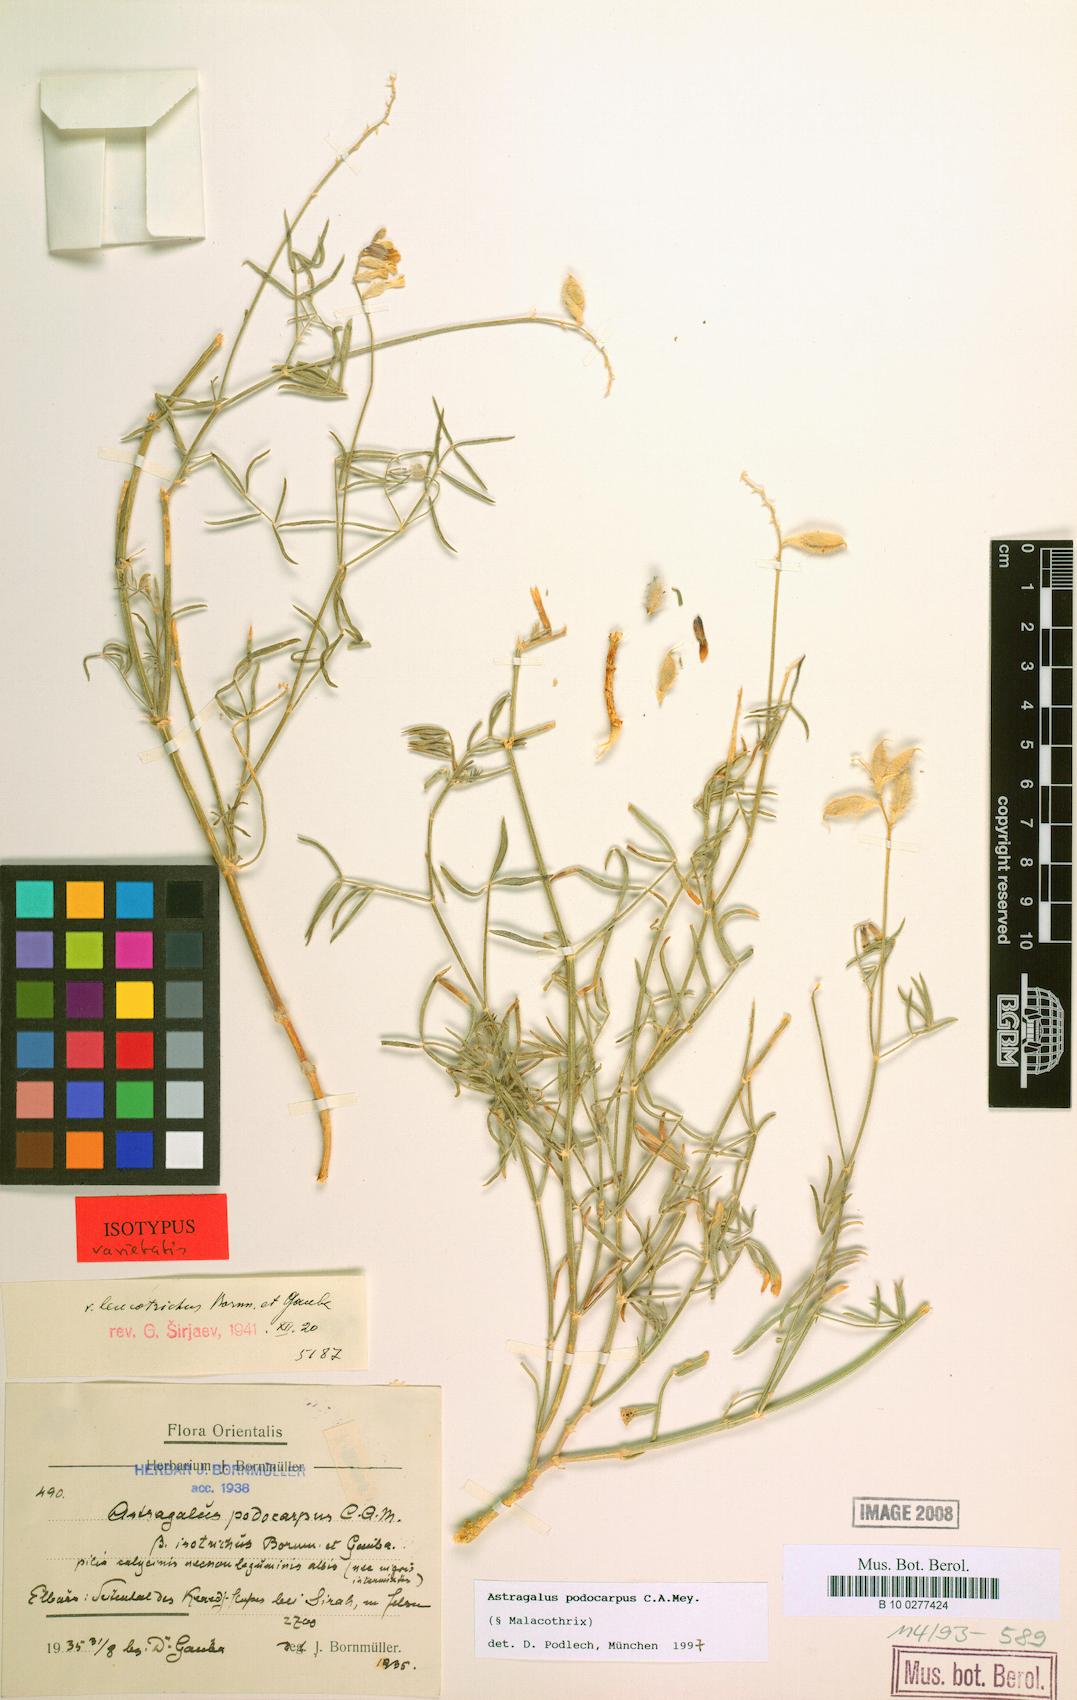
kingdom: Plantae
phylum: Tracheophyta
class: Magnoliopsida
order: Fabales
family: Fabaceae
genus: Astragalus
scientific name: Astragalus podocarpus
